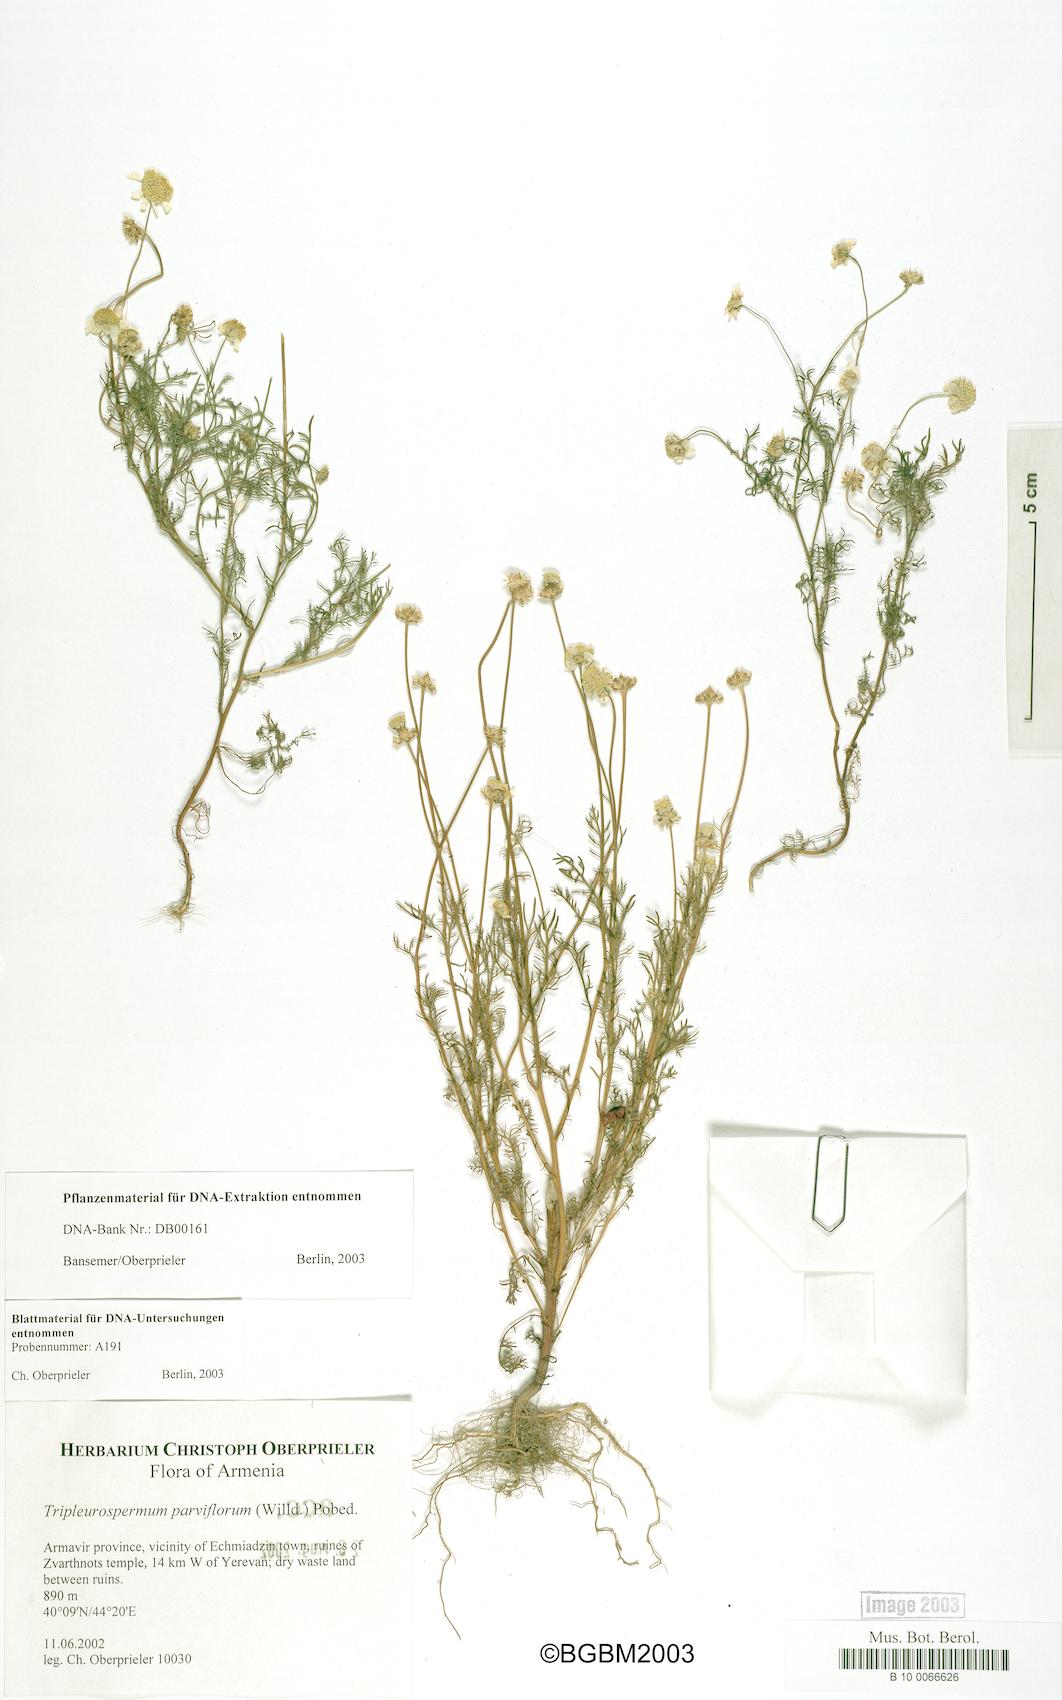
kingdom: Plantae
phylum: Tracheophyta
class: Magnoliopsida
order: Asterales
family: Asteraceae
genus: Tripleurospermum
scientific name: Tripleurospermum parviflorum
